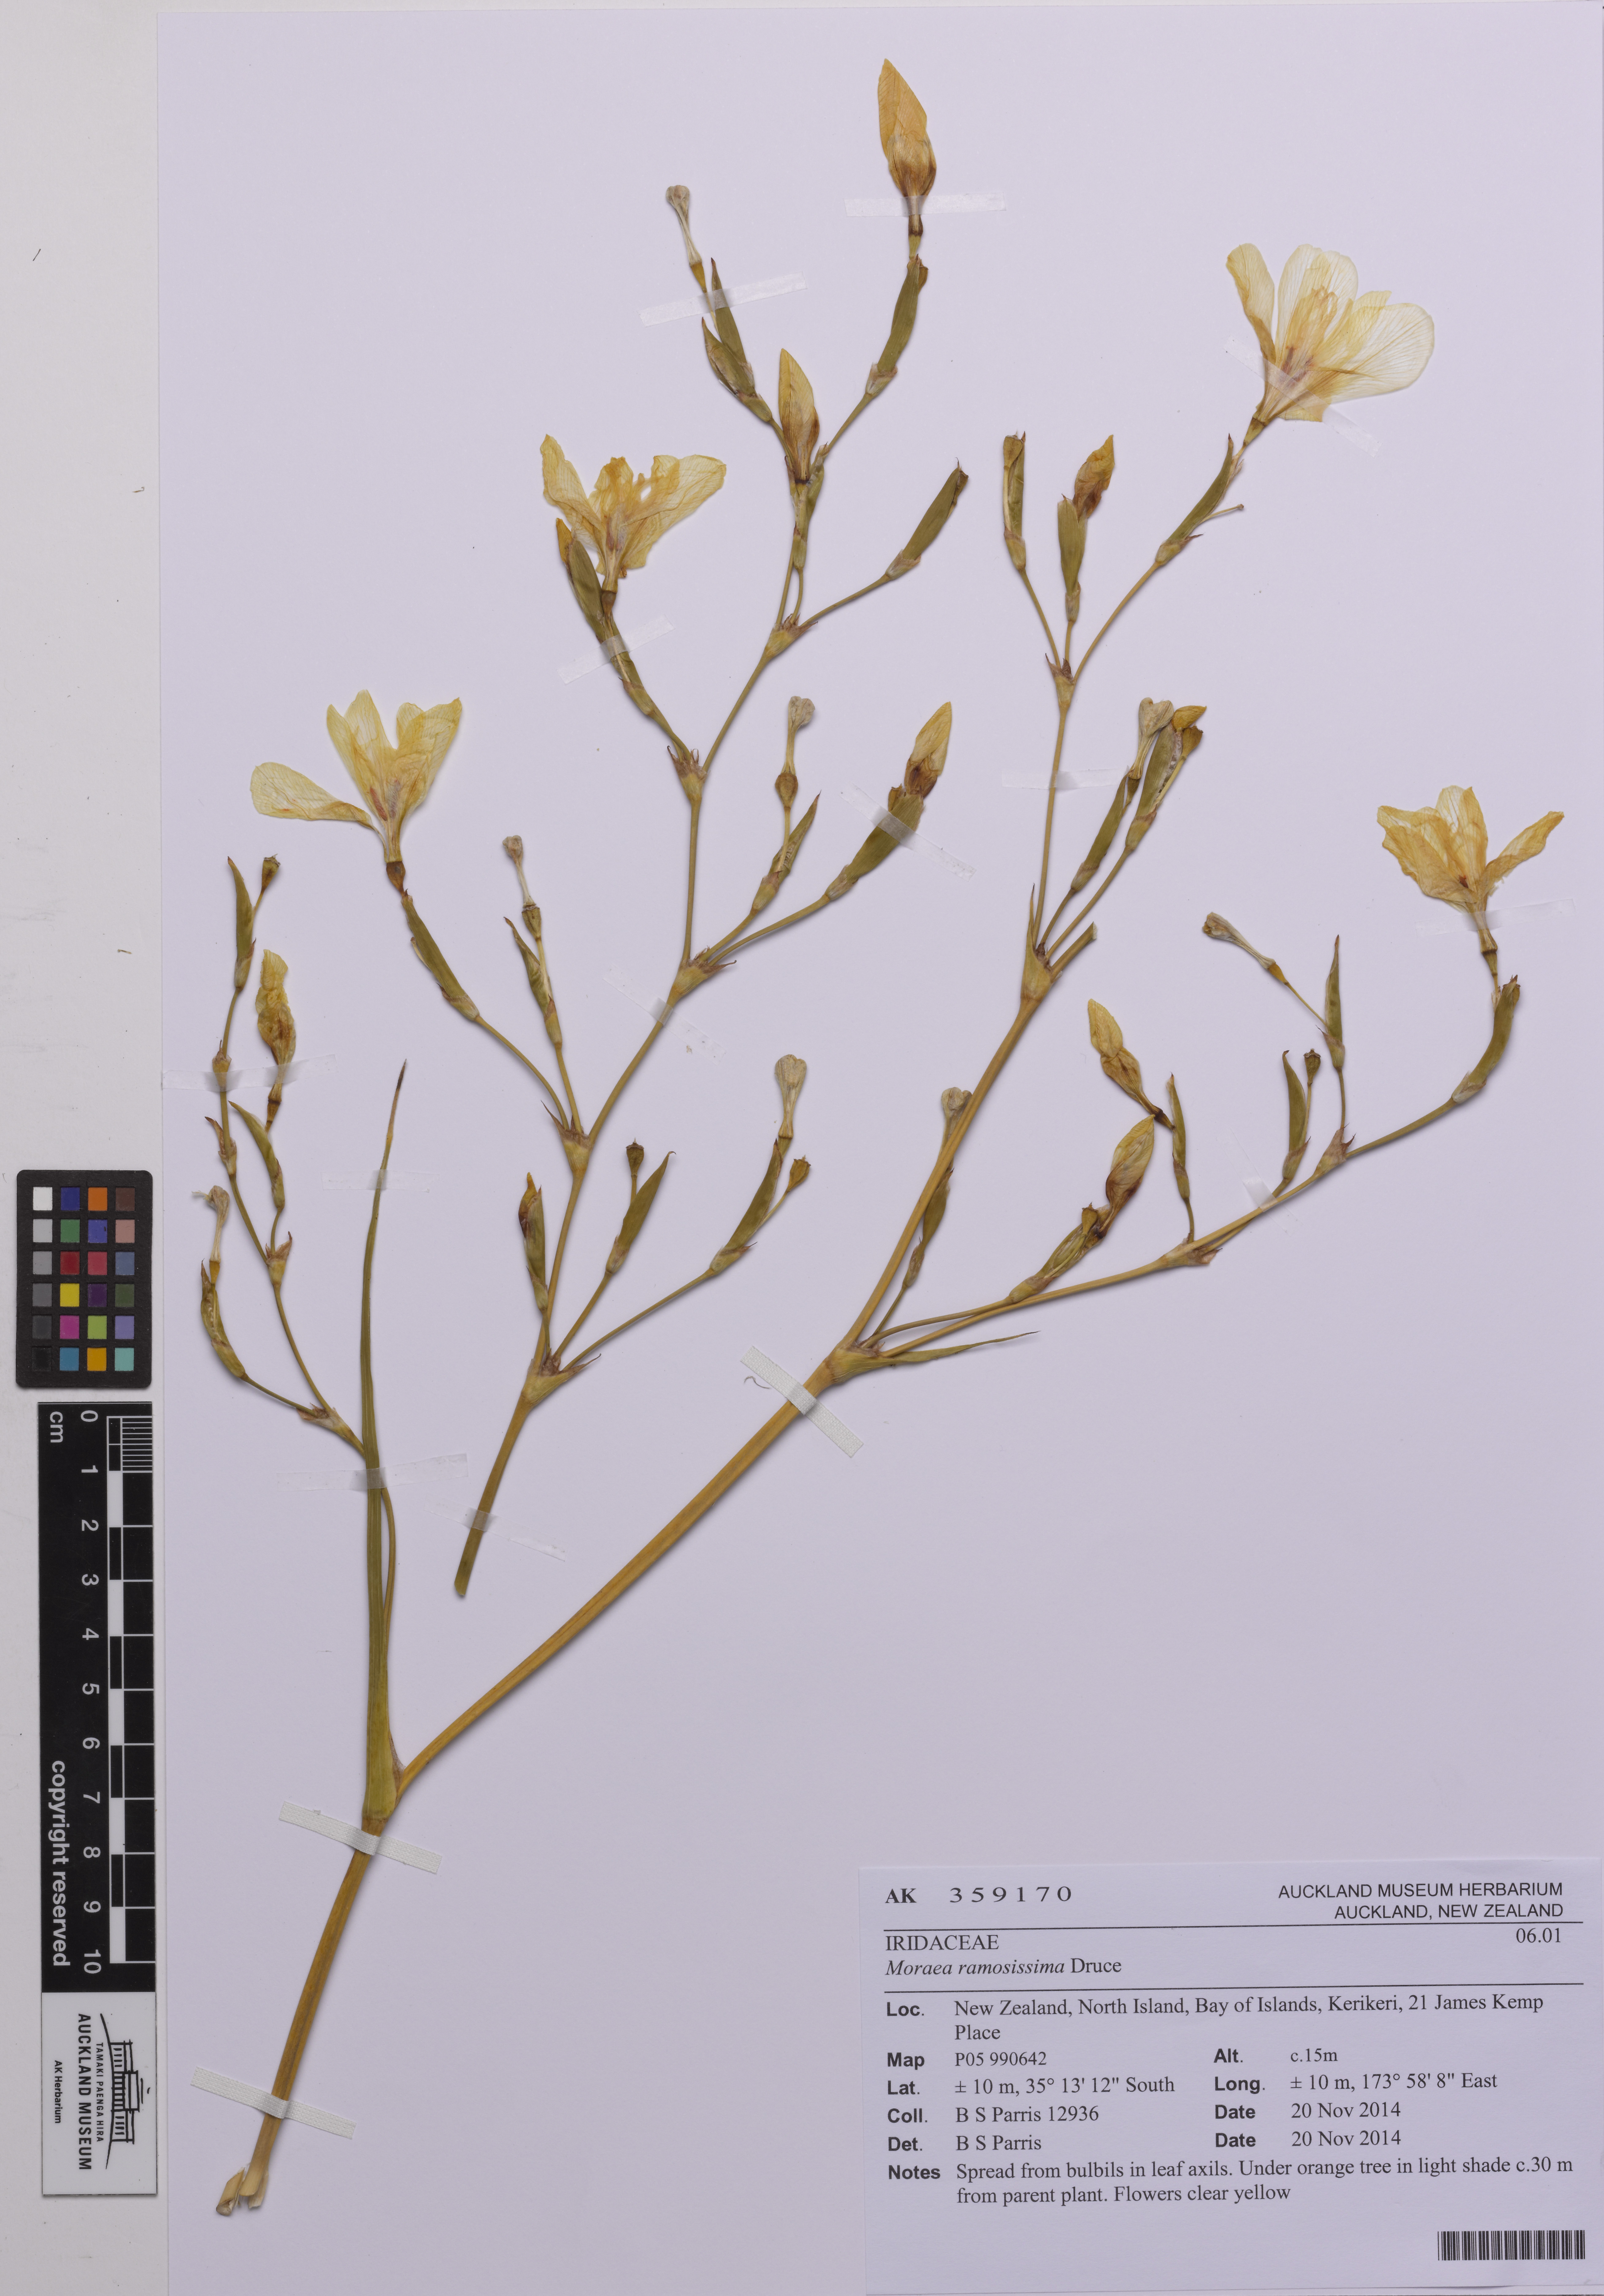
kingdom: Plantae
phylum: Tracheophyta
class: Liliopsida
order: Asparagales
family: Iridaceae
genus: Moraea
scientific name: Moraea ramosissima
